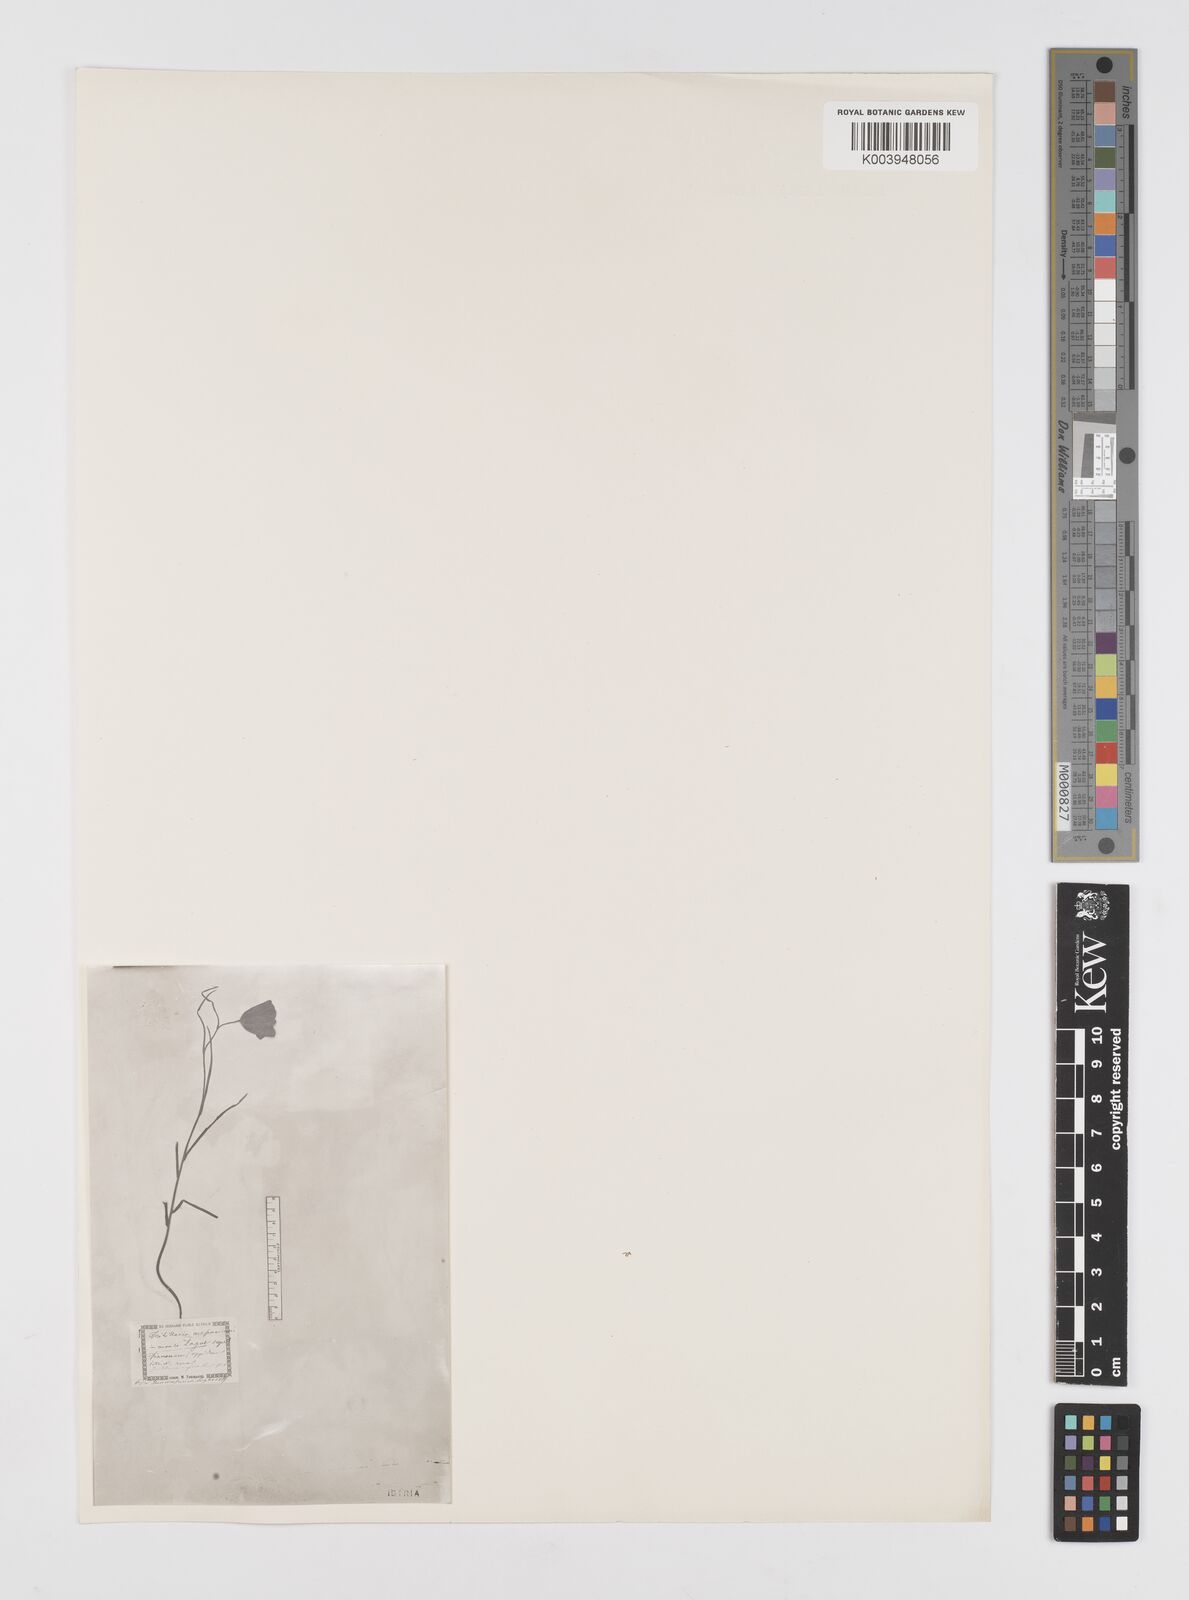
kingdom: Plantae
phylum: Tracheophyta
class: Liliopsida
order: Liliales
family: Liliaceae
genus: Fritillaria
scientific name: Fritillaria orientalis
